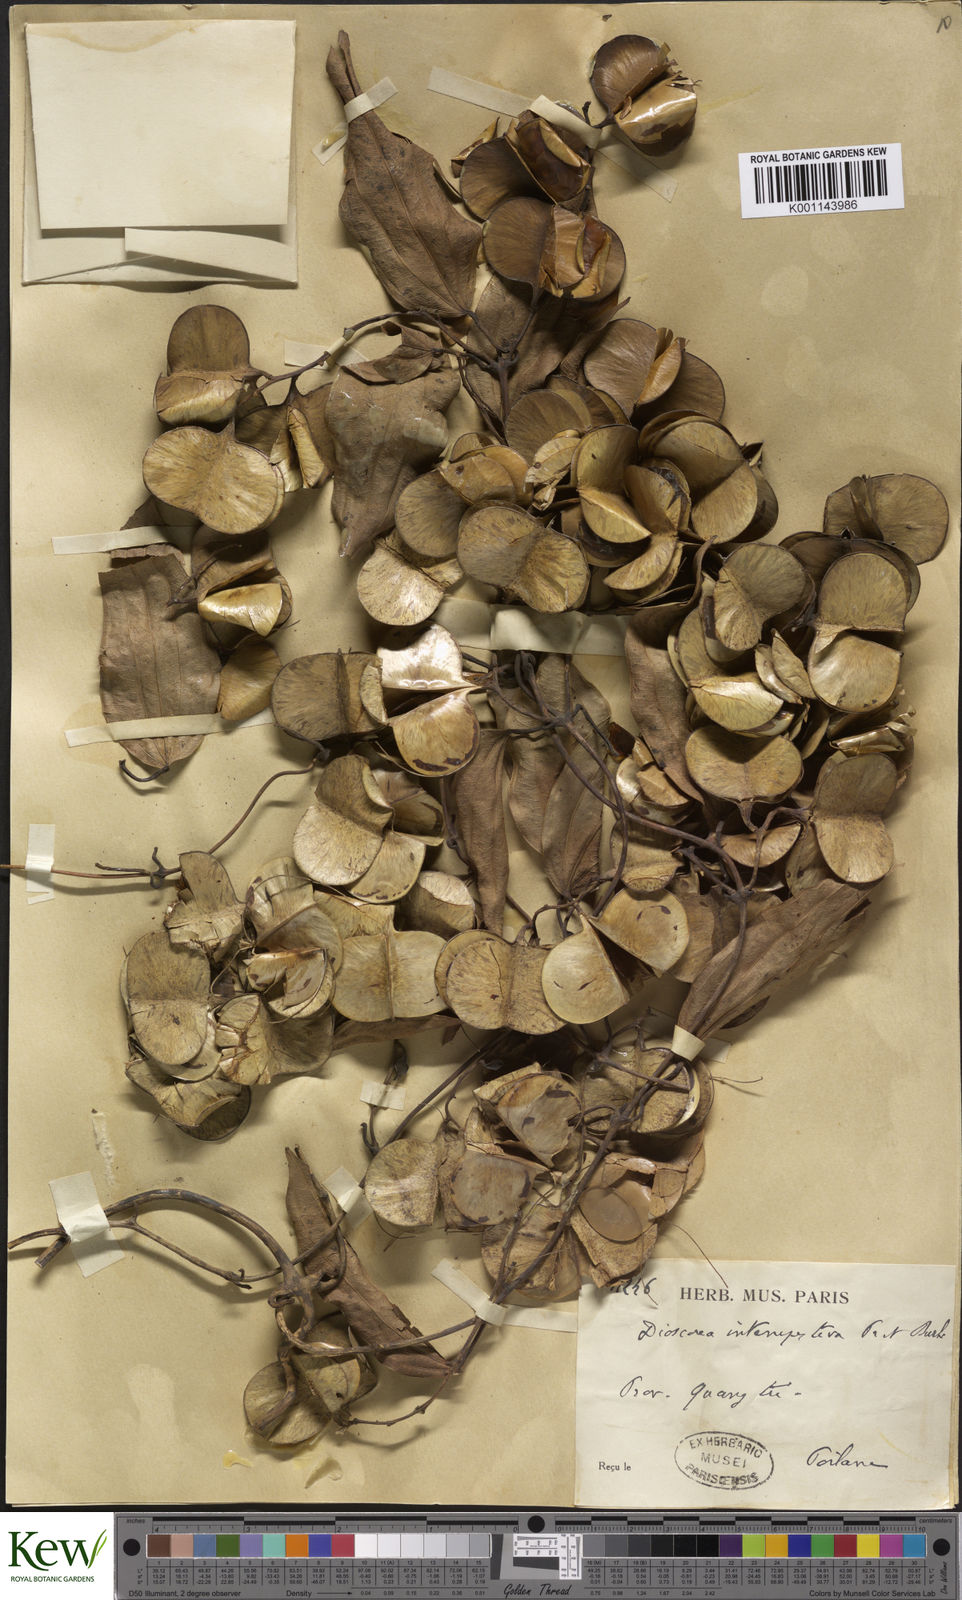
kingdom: Plantae
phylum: Tracheophyta
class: Liliopsida
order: Dioscoreales
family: Dioscoreaceae
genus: Dioscorea
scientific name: Dioscorea cirrhosa
